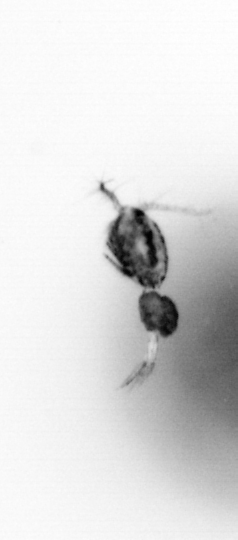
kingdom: Animalia
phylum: Arthropoda
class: Copepoda
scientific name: Copepoda
